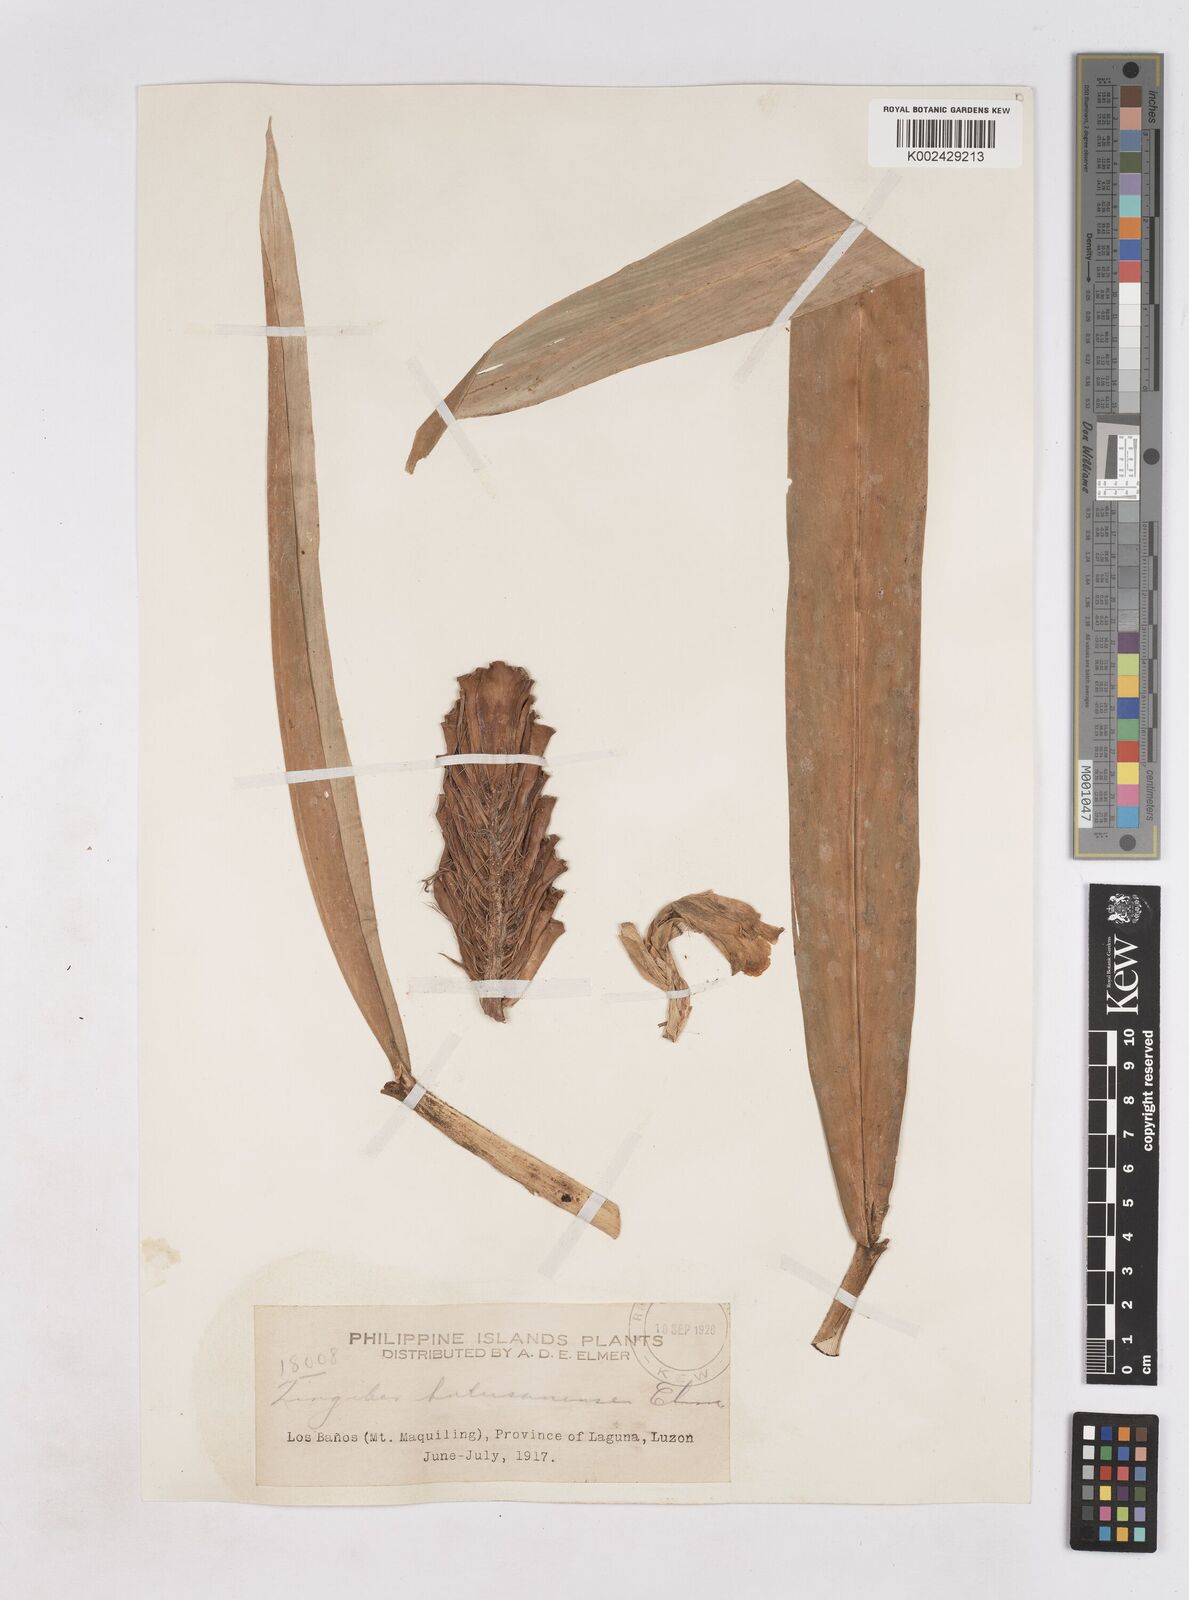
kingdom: Plantae
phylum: Tracheophyta
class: Liliopsida
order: Zingiberales
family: Zingiberaceae
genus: Zingiber
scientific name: Zingiber bulusanense
